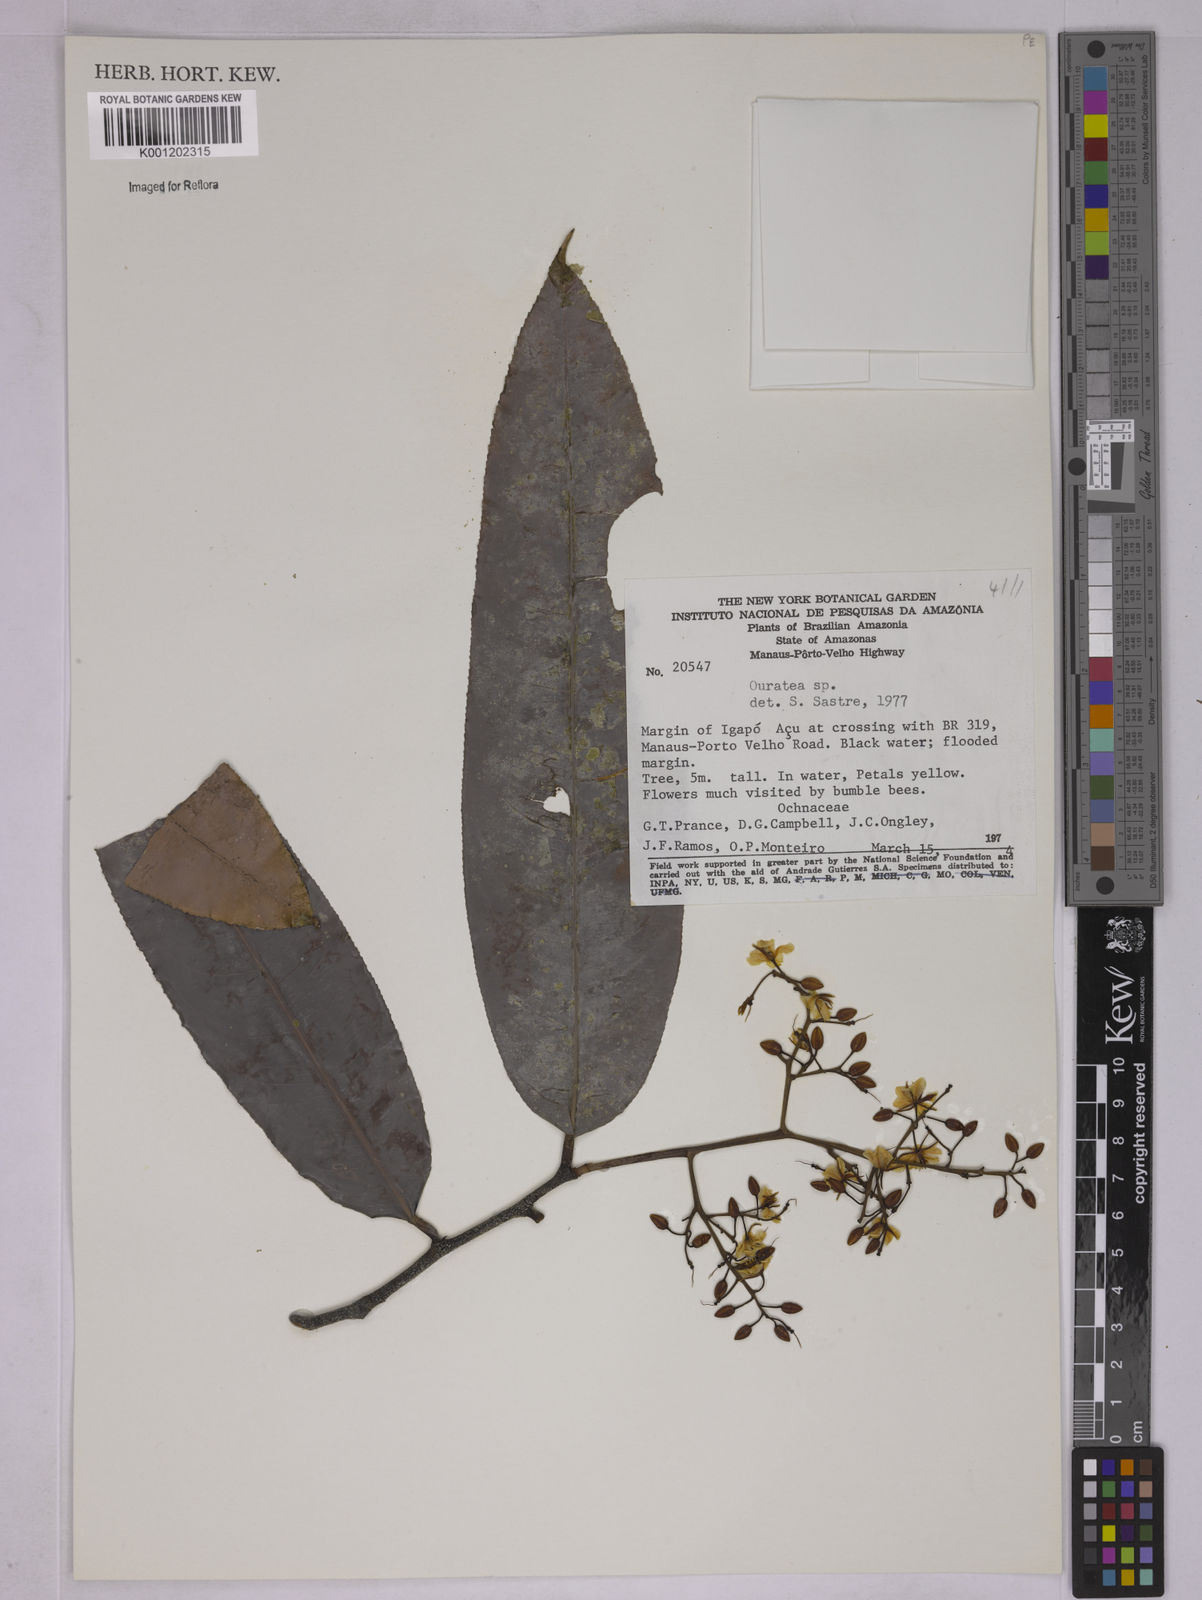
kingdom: Plantae
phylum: Tracheophyta
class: Magnoliopsida
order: Malpighiales
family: Ochnaceae
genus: Ouratea
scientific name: Ouratea
